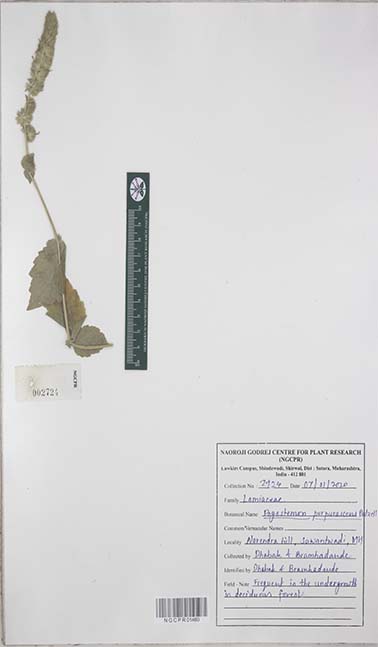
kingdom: Plantae
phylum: Tracheophyta
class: Magnoliopsida
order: Lamiales
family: Lamiaceae
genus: Pogostemon
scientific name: Pogostemon purpurascens
